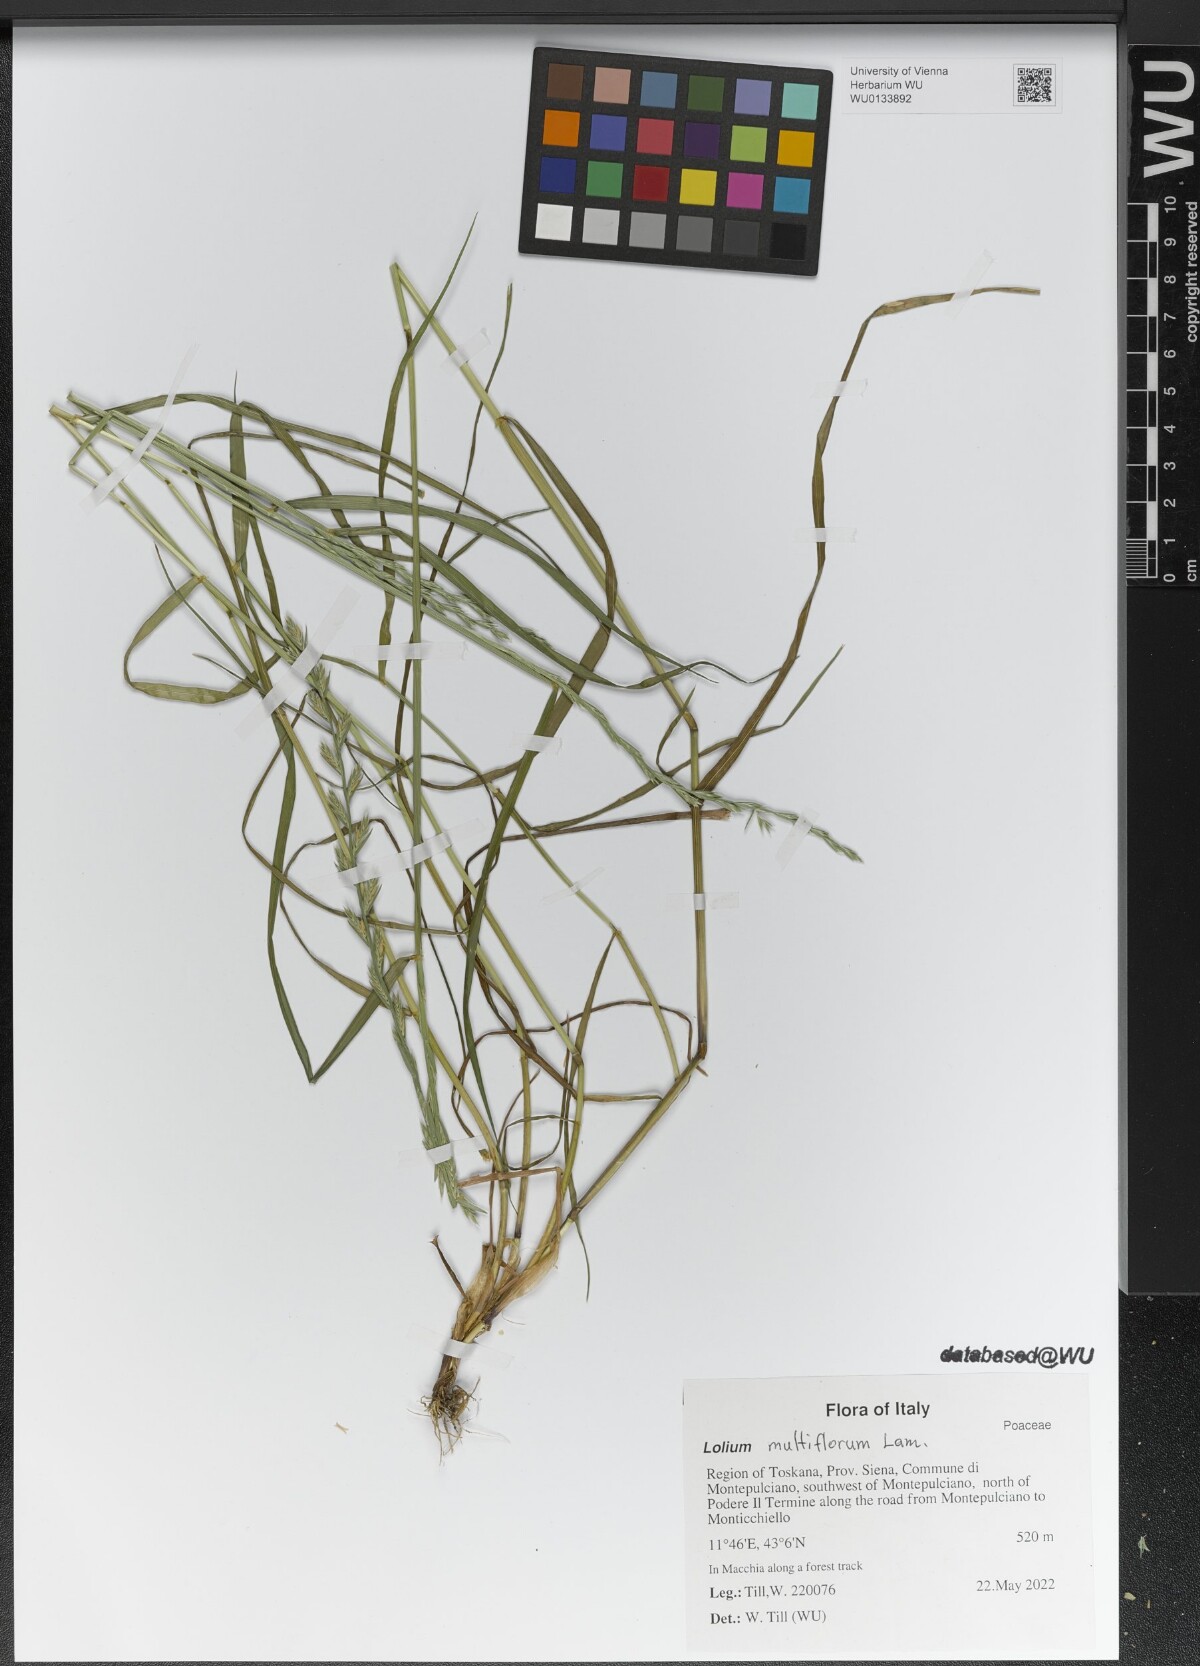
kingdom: Plantae
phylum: Tracheophyta
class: Liliopsida
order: Poales
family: Poaceae
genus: Lolium
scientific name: Lolium multiflorum
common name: Annual ryegrass
